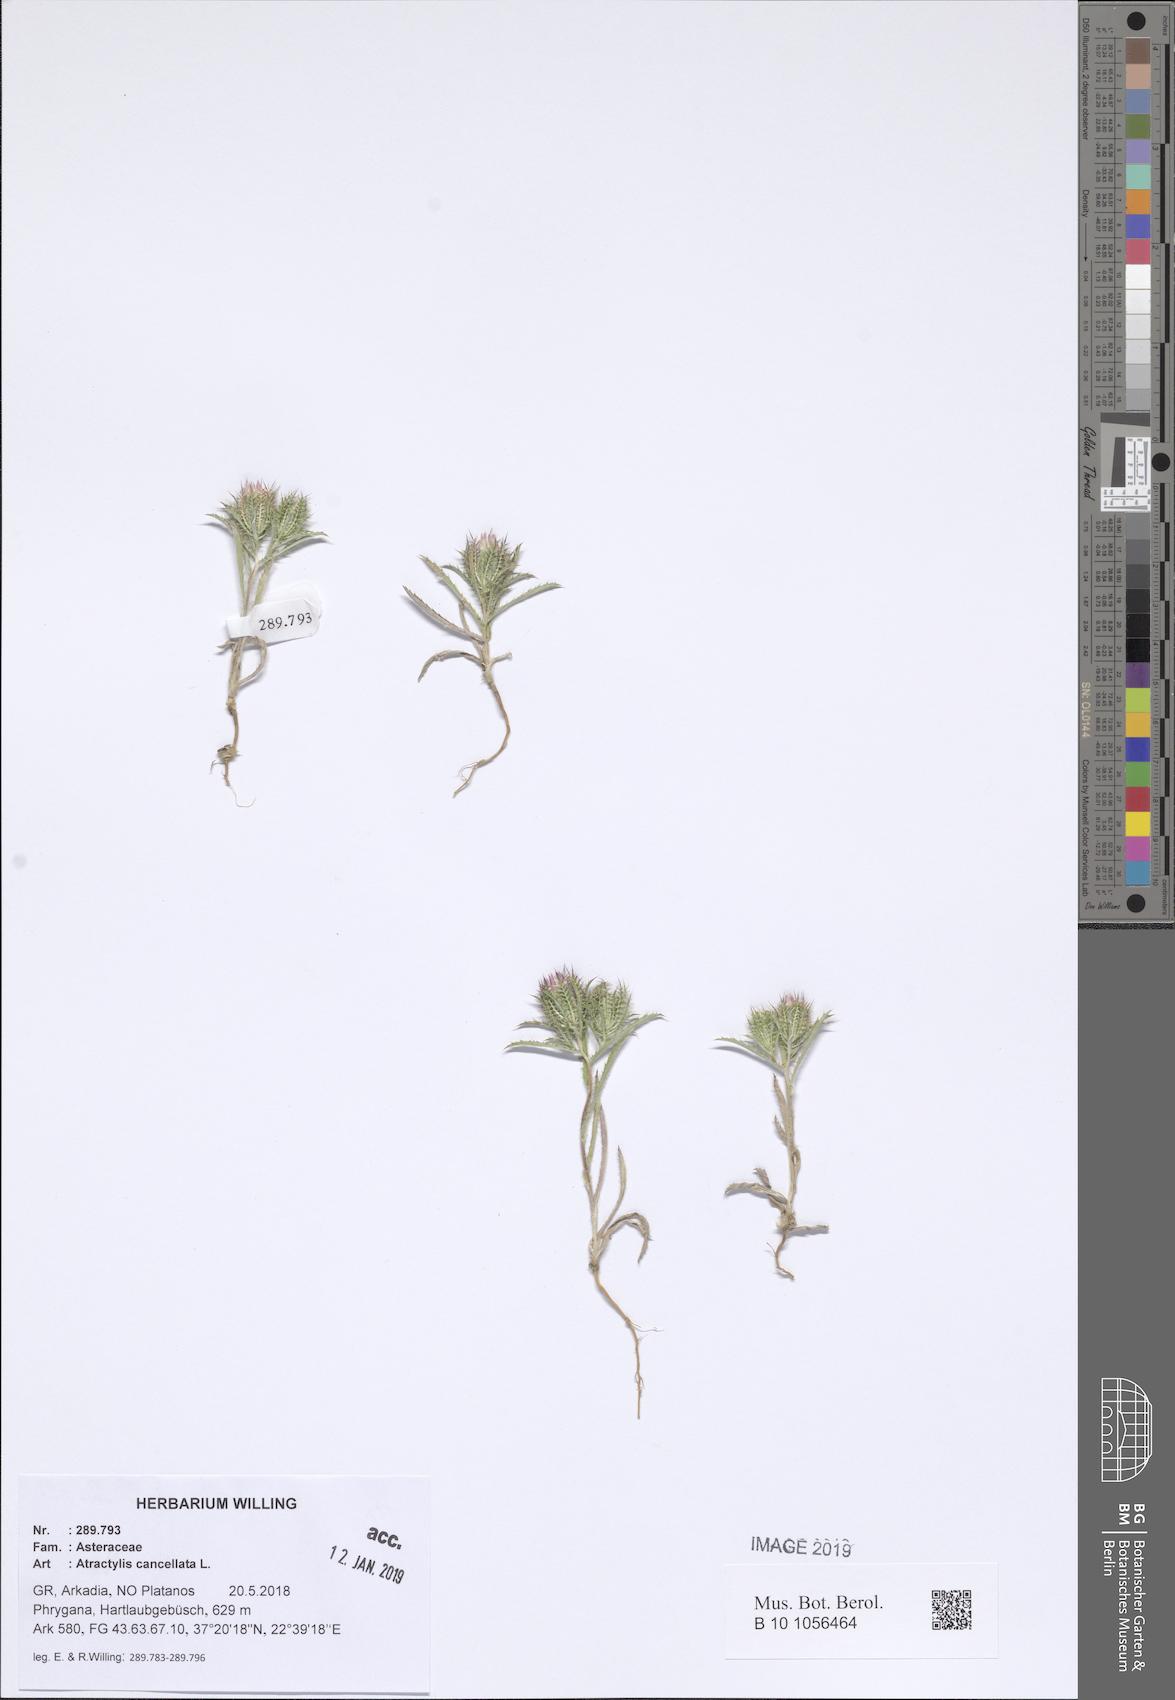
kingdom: Plantae
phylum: Tracheophyta
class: Magnoliopsida
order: Asterales
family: Asteraceae
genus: Atractylis
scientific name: Atractylis cancellata
